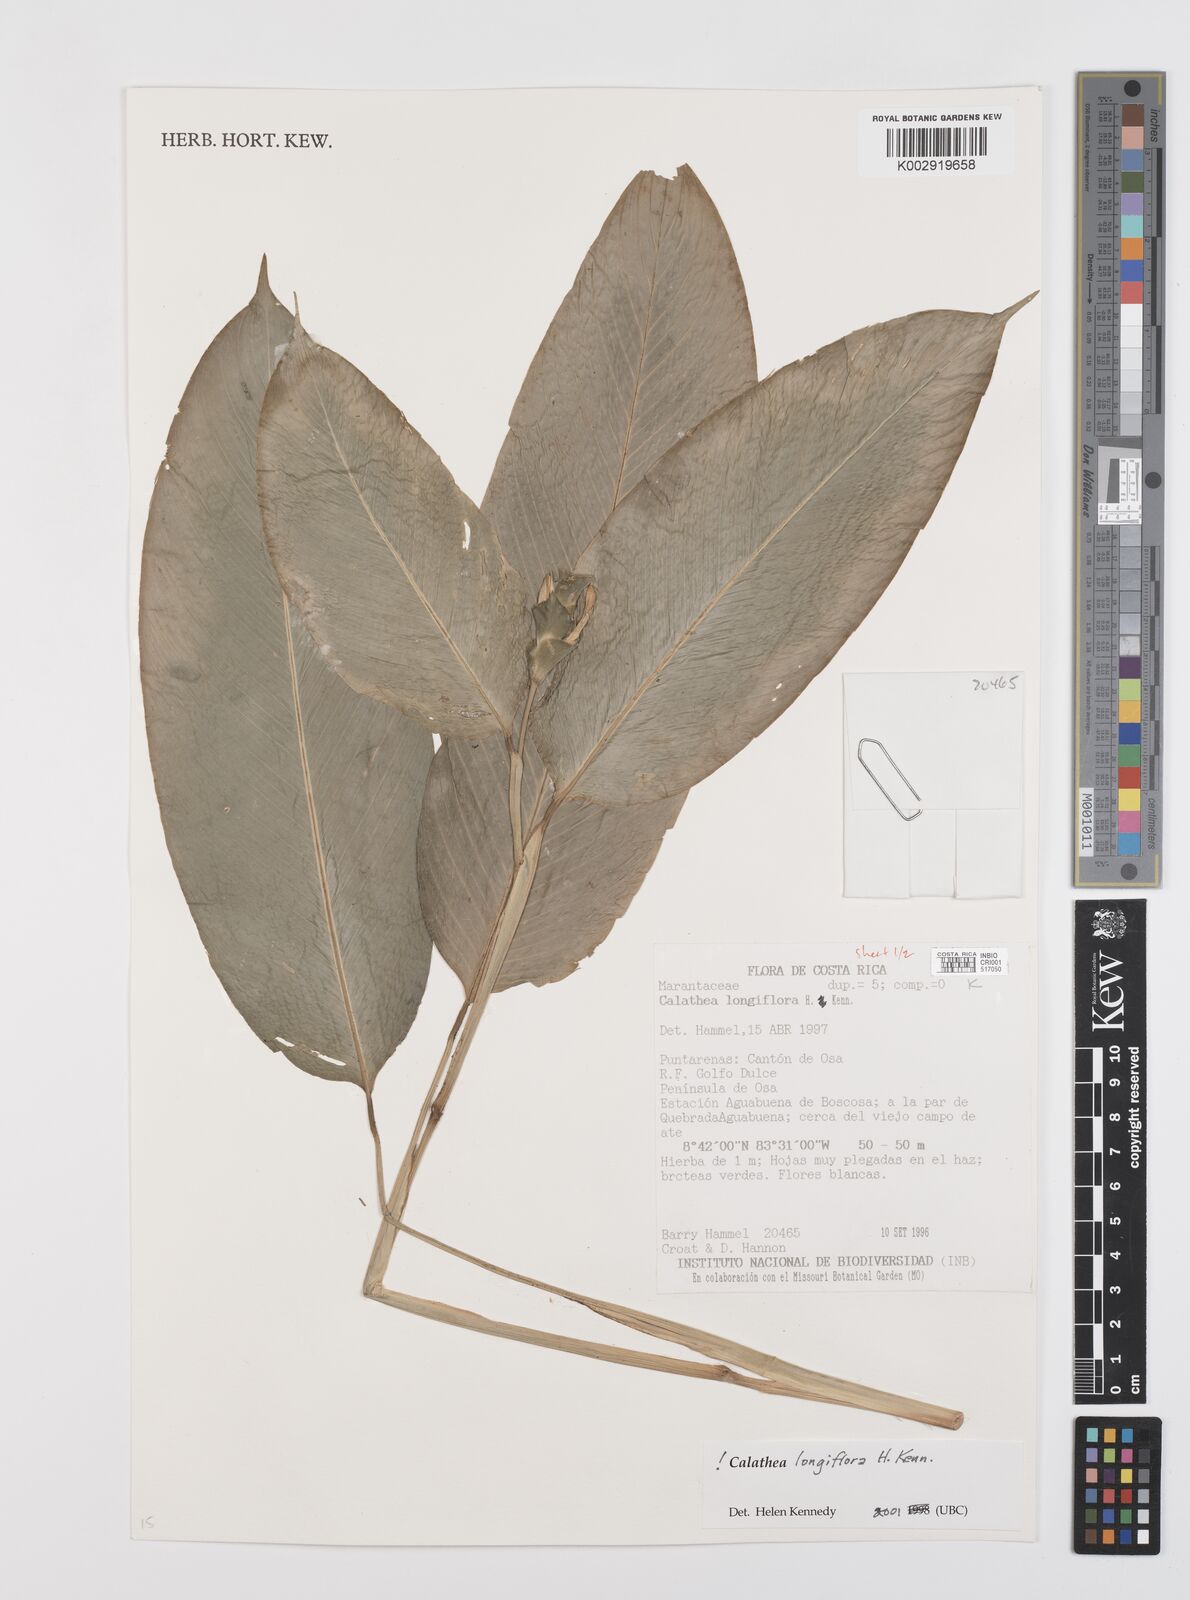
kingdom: Plantae
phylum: Tracheophyta
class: Liliopsida
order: Zingiberales
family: Marantaceae
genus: Goeppertia
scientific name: Goeppertia longiflora
